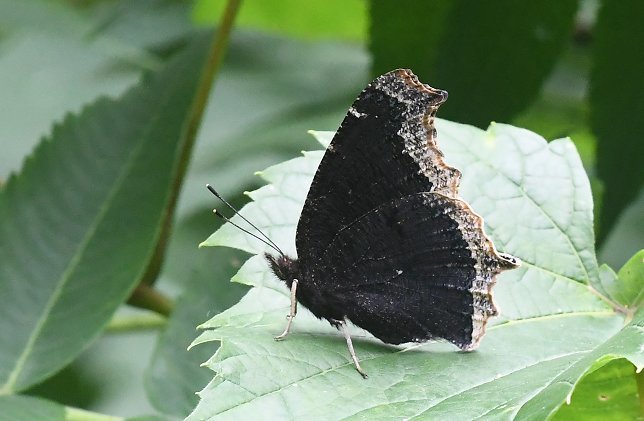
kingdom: Animalia
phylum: Arthropoda
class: Insecta
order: Lepidoptera
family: Nymphalidae
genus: Nymphalis
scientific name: Nymphalis antiopa
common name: Mourning Cloak
